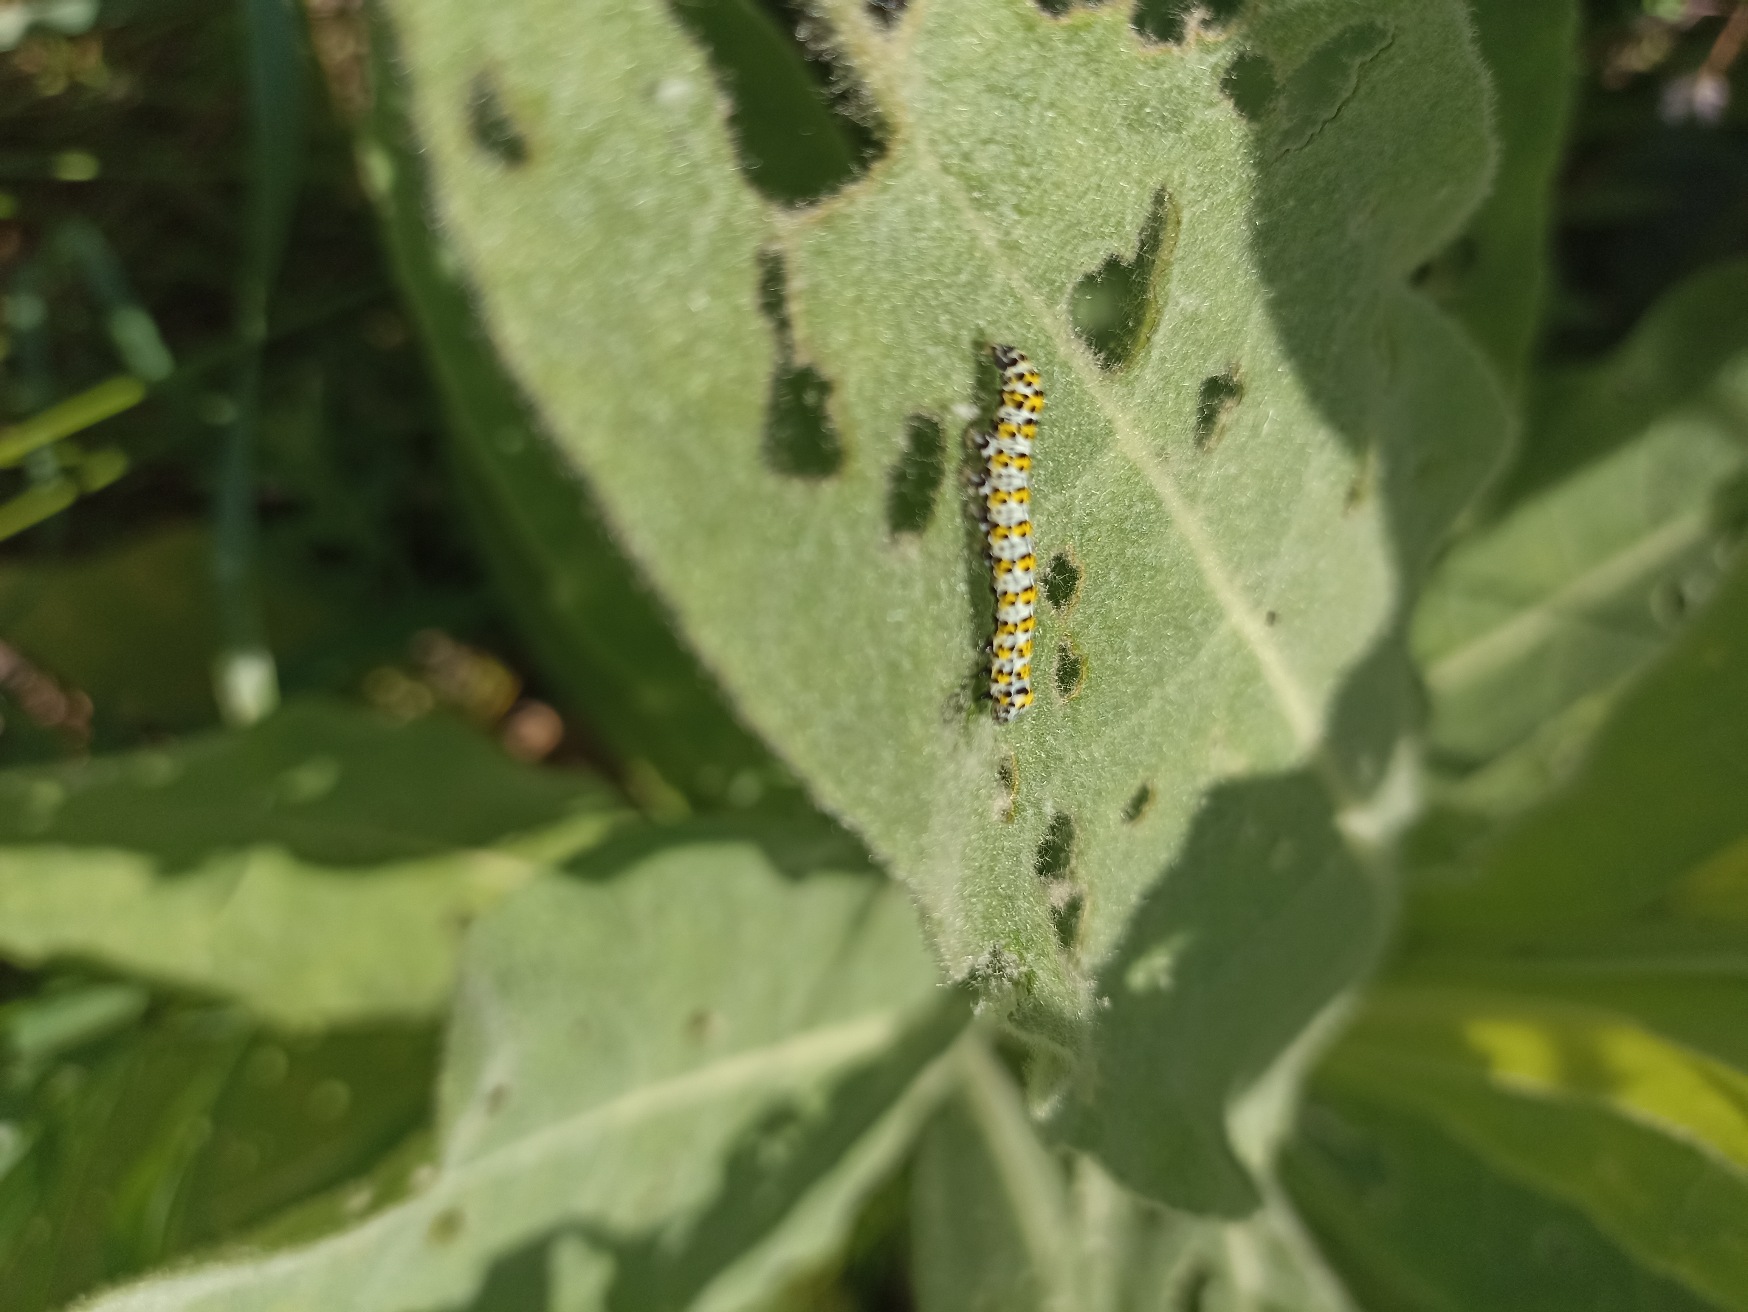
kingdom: Animalia
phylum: Arthropoda
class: Insecta
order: Lepidoptera
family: Noctuidae
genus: Cucullia
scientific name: Cucullia verbasci
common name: Filtbladet kongelys-hætteugle
